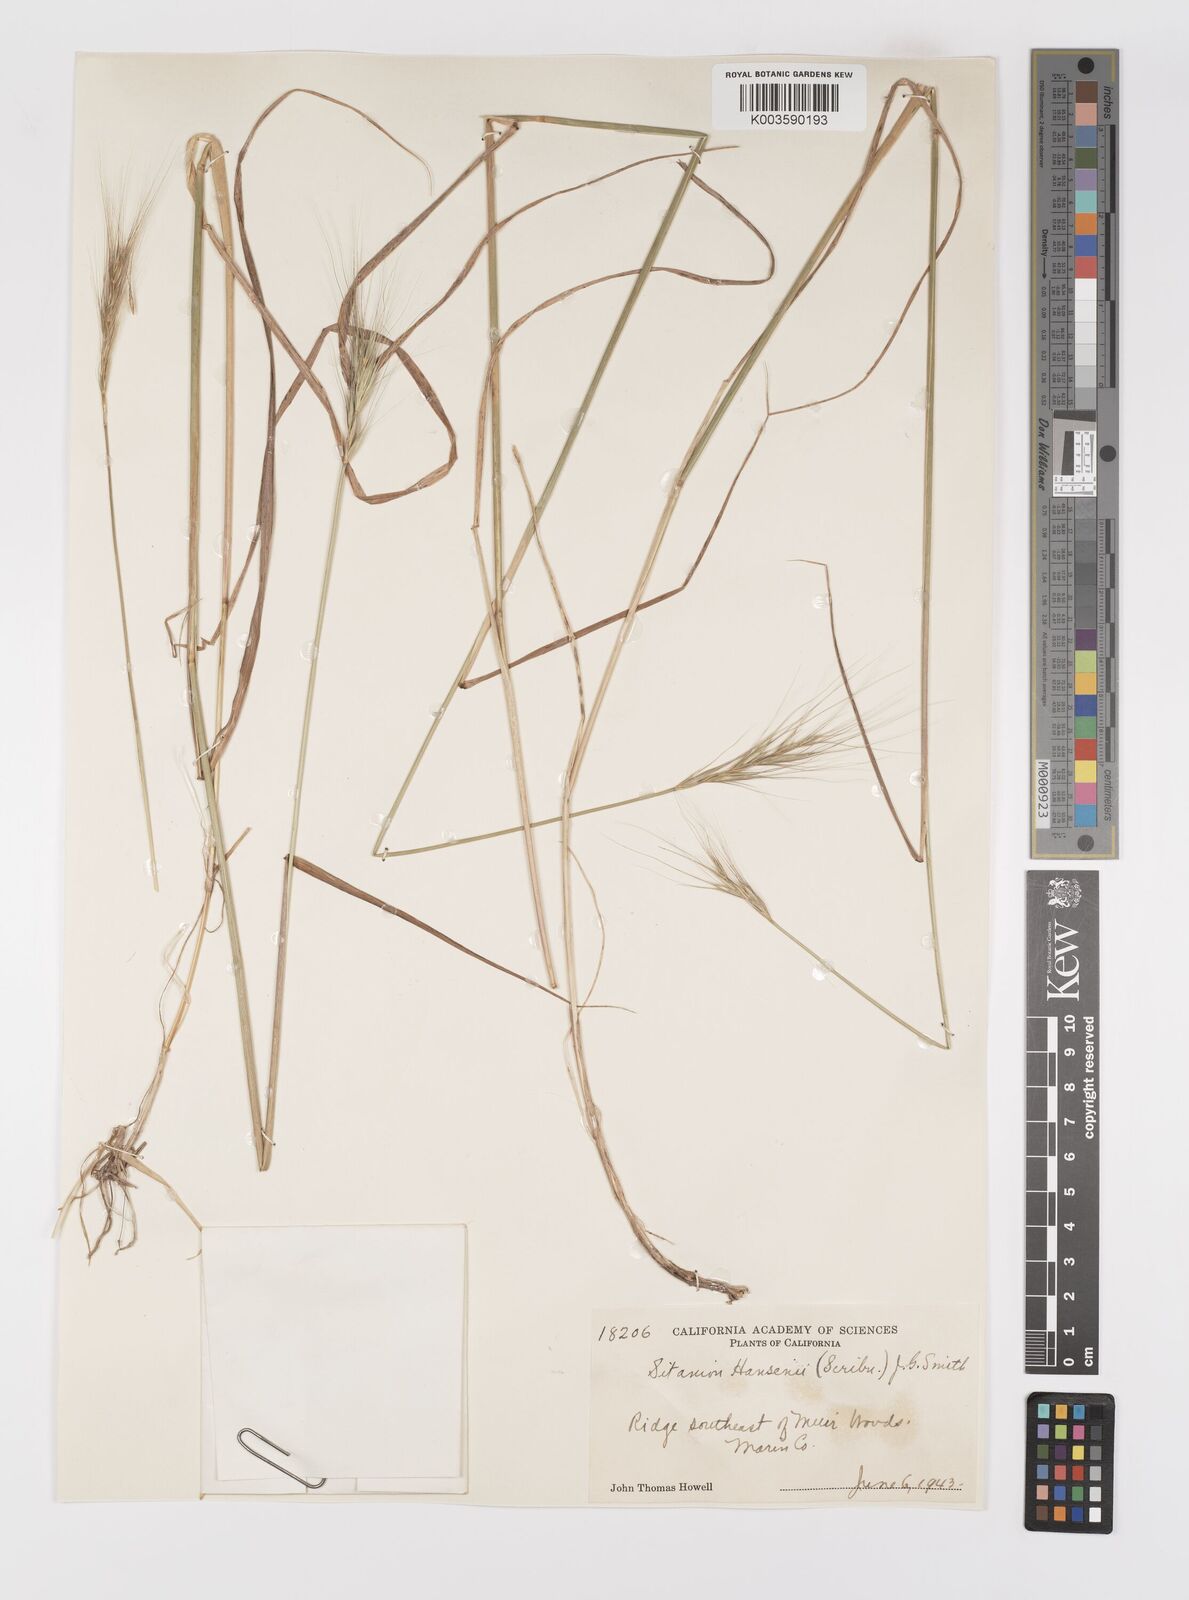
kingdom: Plantae
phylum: Tracheophyta
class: Liliopsida
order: Poales
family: Poaceae
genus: Elymus
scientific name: Elymus hansenii
